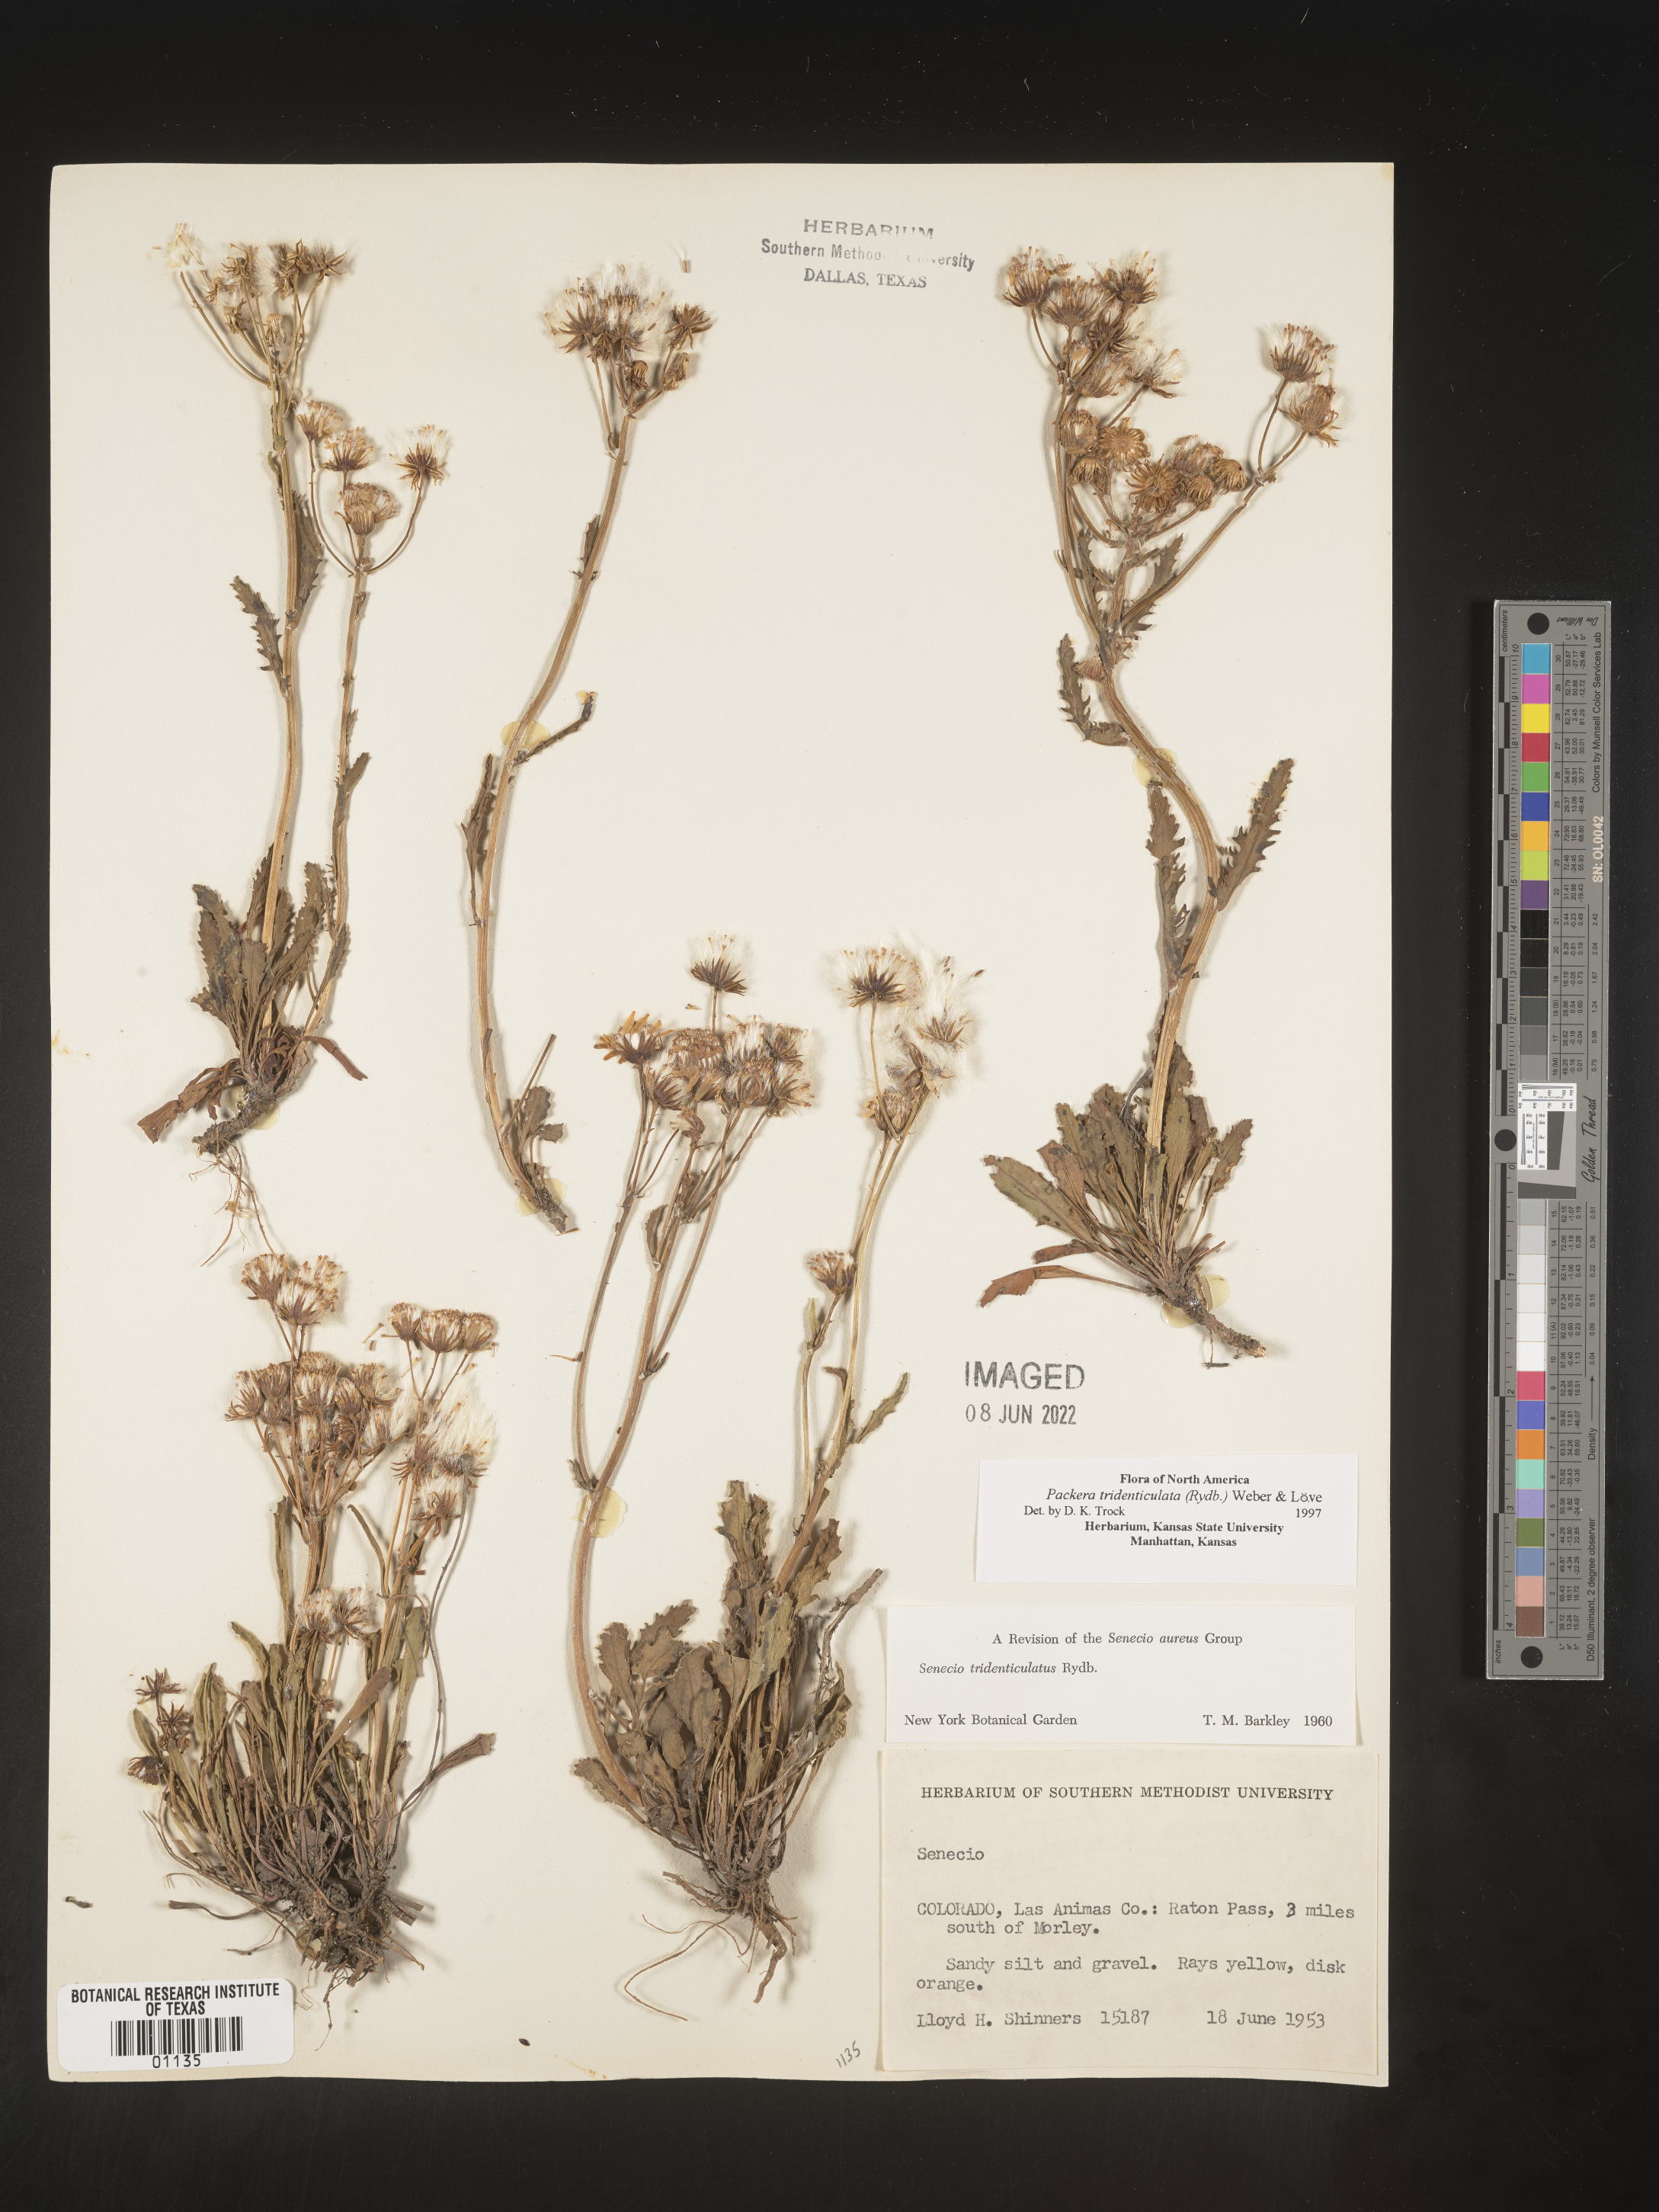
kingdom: Plantae
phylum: Tracheophyta
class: Magnoliopsida
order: Asterales
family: Asteraceae
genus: Packera
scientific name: Packera thurberi
